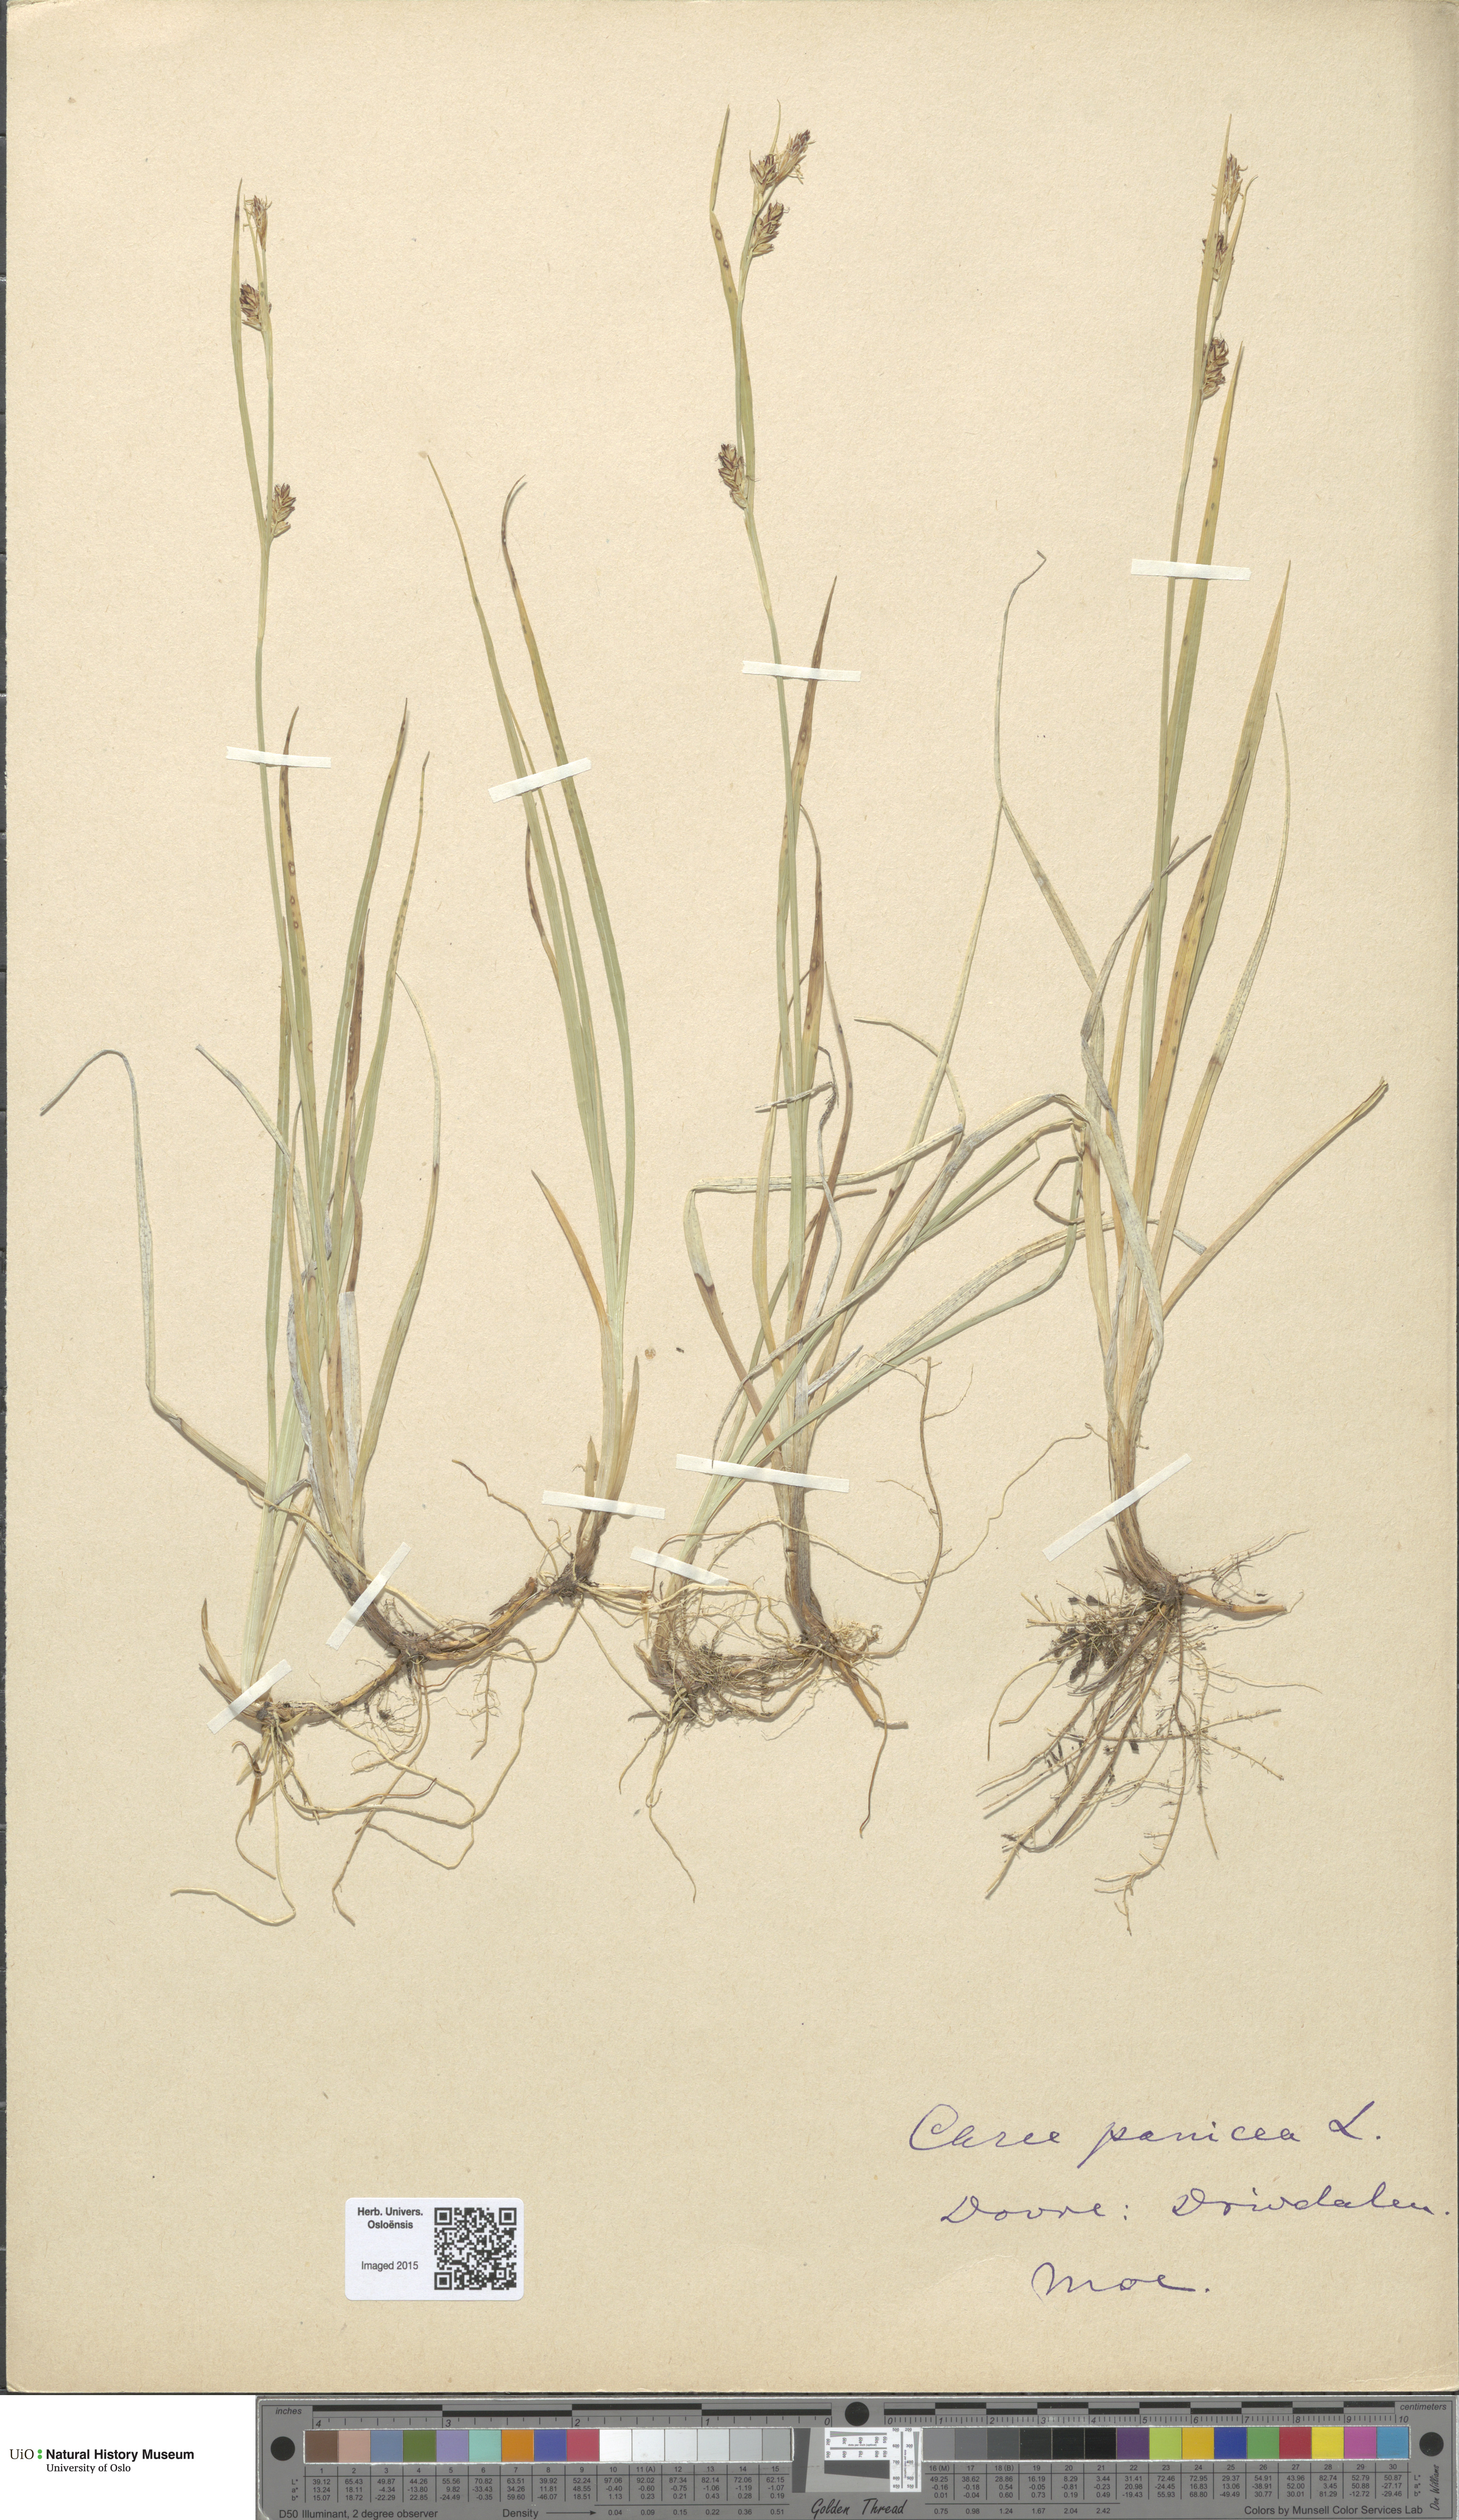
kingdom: Plantae
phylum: Tracheophyta
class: Liliopsida
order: Poales
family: Cyperaceae
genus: Carex
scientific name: Carex panicea
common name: Carnation sedge
